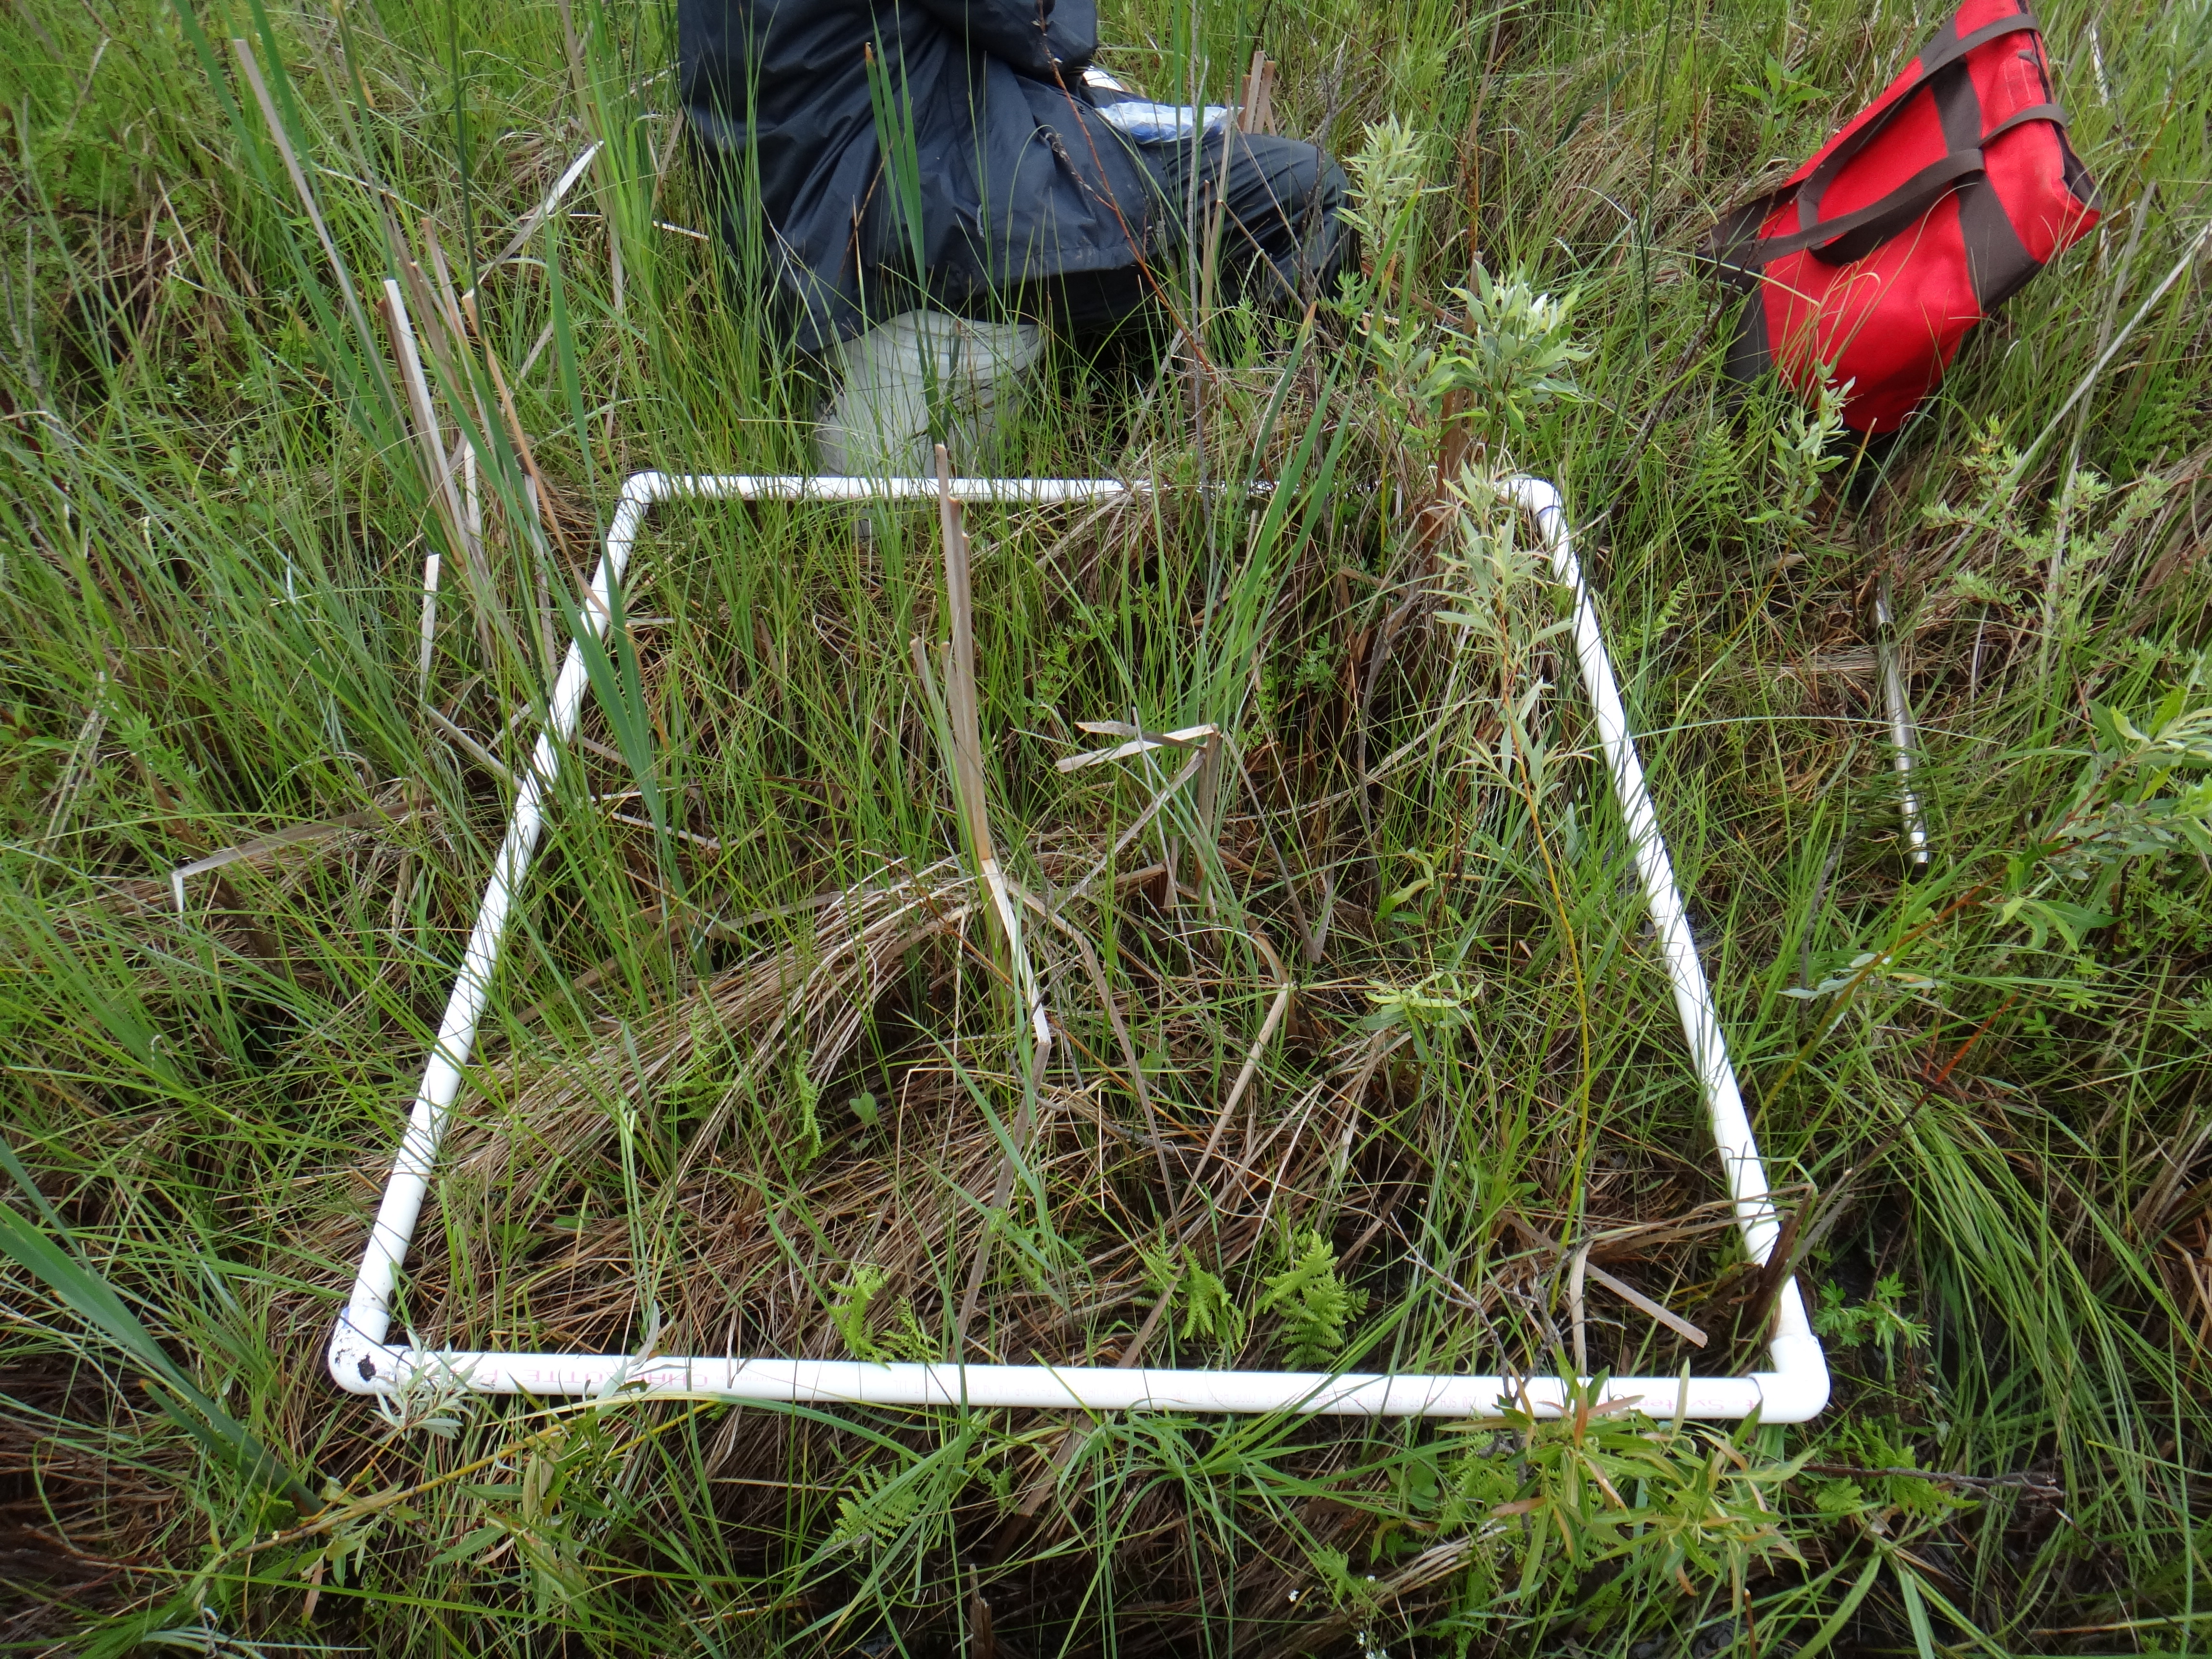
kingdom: Plantae
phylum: Tracheophyta
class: Liliopsida
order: Poales
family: Poaceae
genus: Glyceria
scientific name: Glyceria striata
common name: Fowl manna grass
